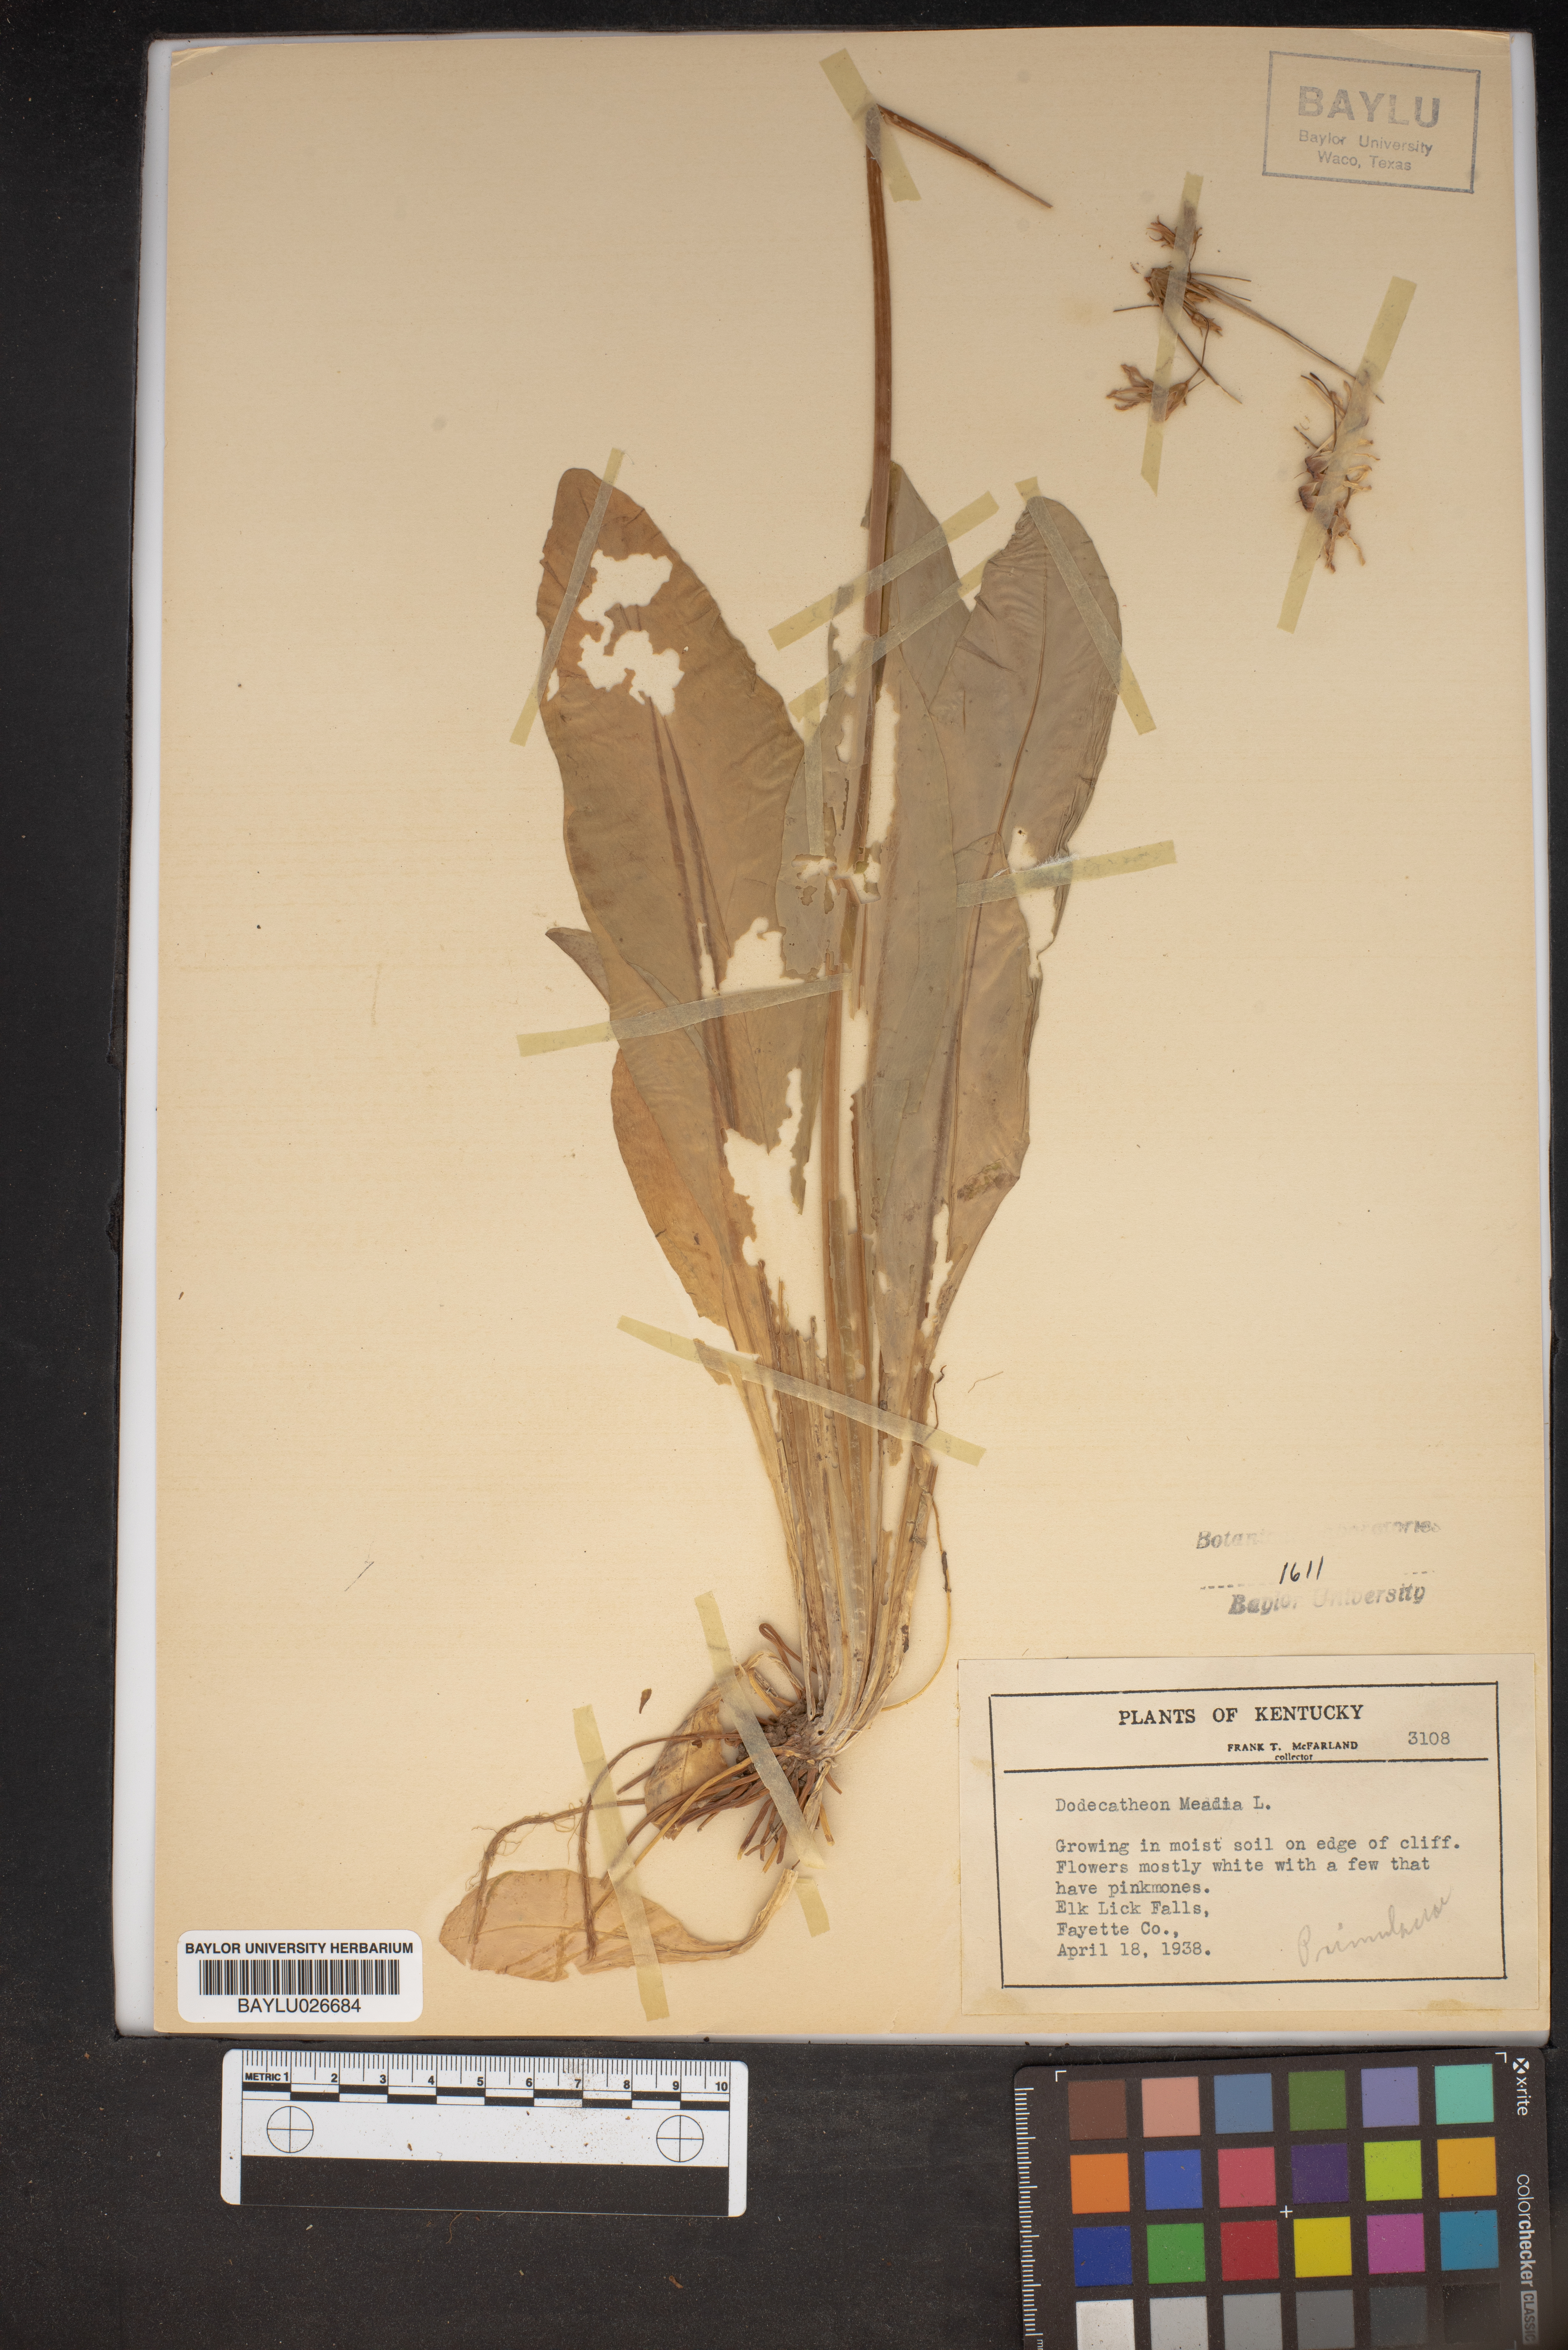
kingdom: Plantae
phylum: Tracheophyta
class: Magnoliopsida
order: Ericales
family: Primulaceae
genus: Dodecatheon
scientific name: Dodecatheon meadia
